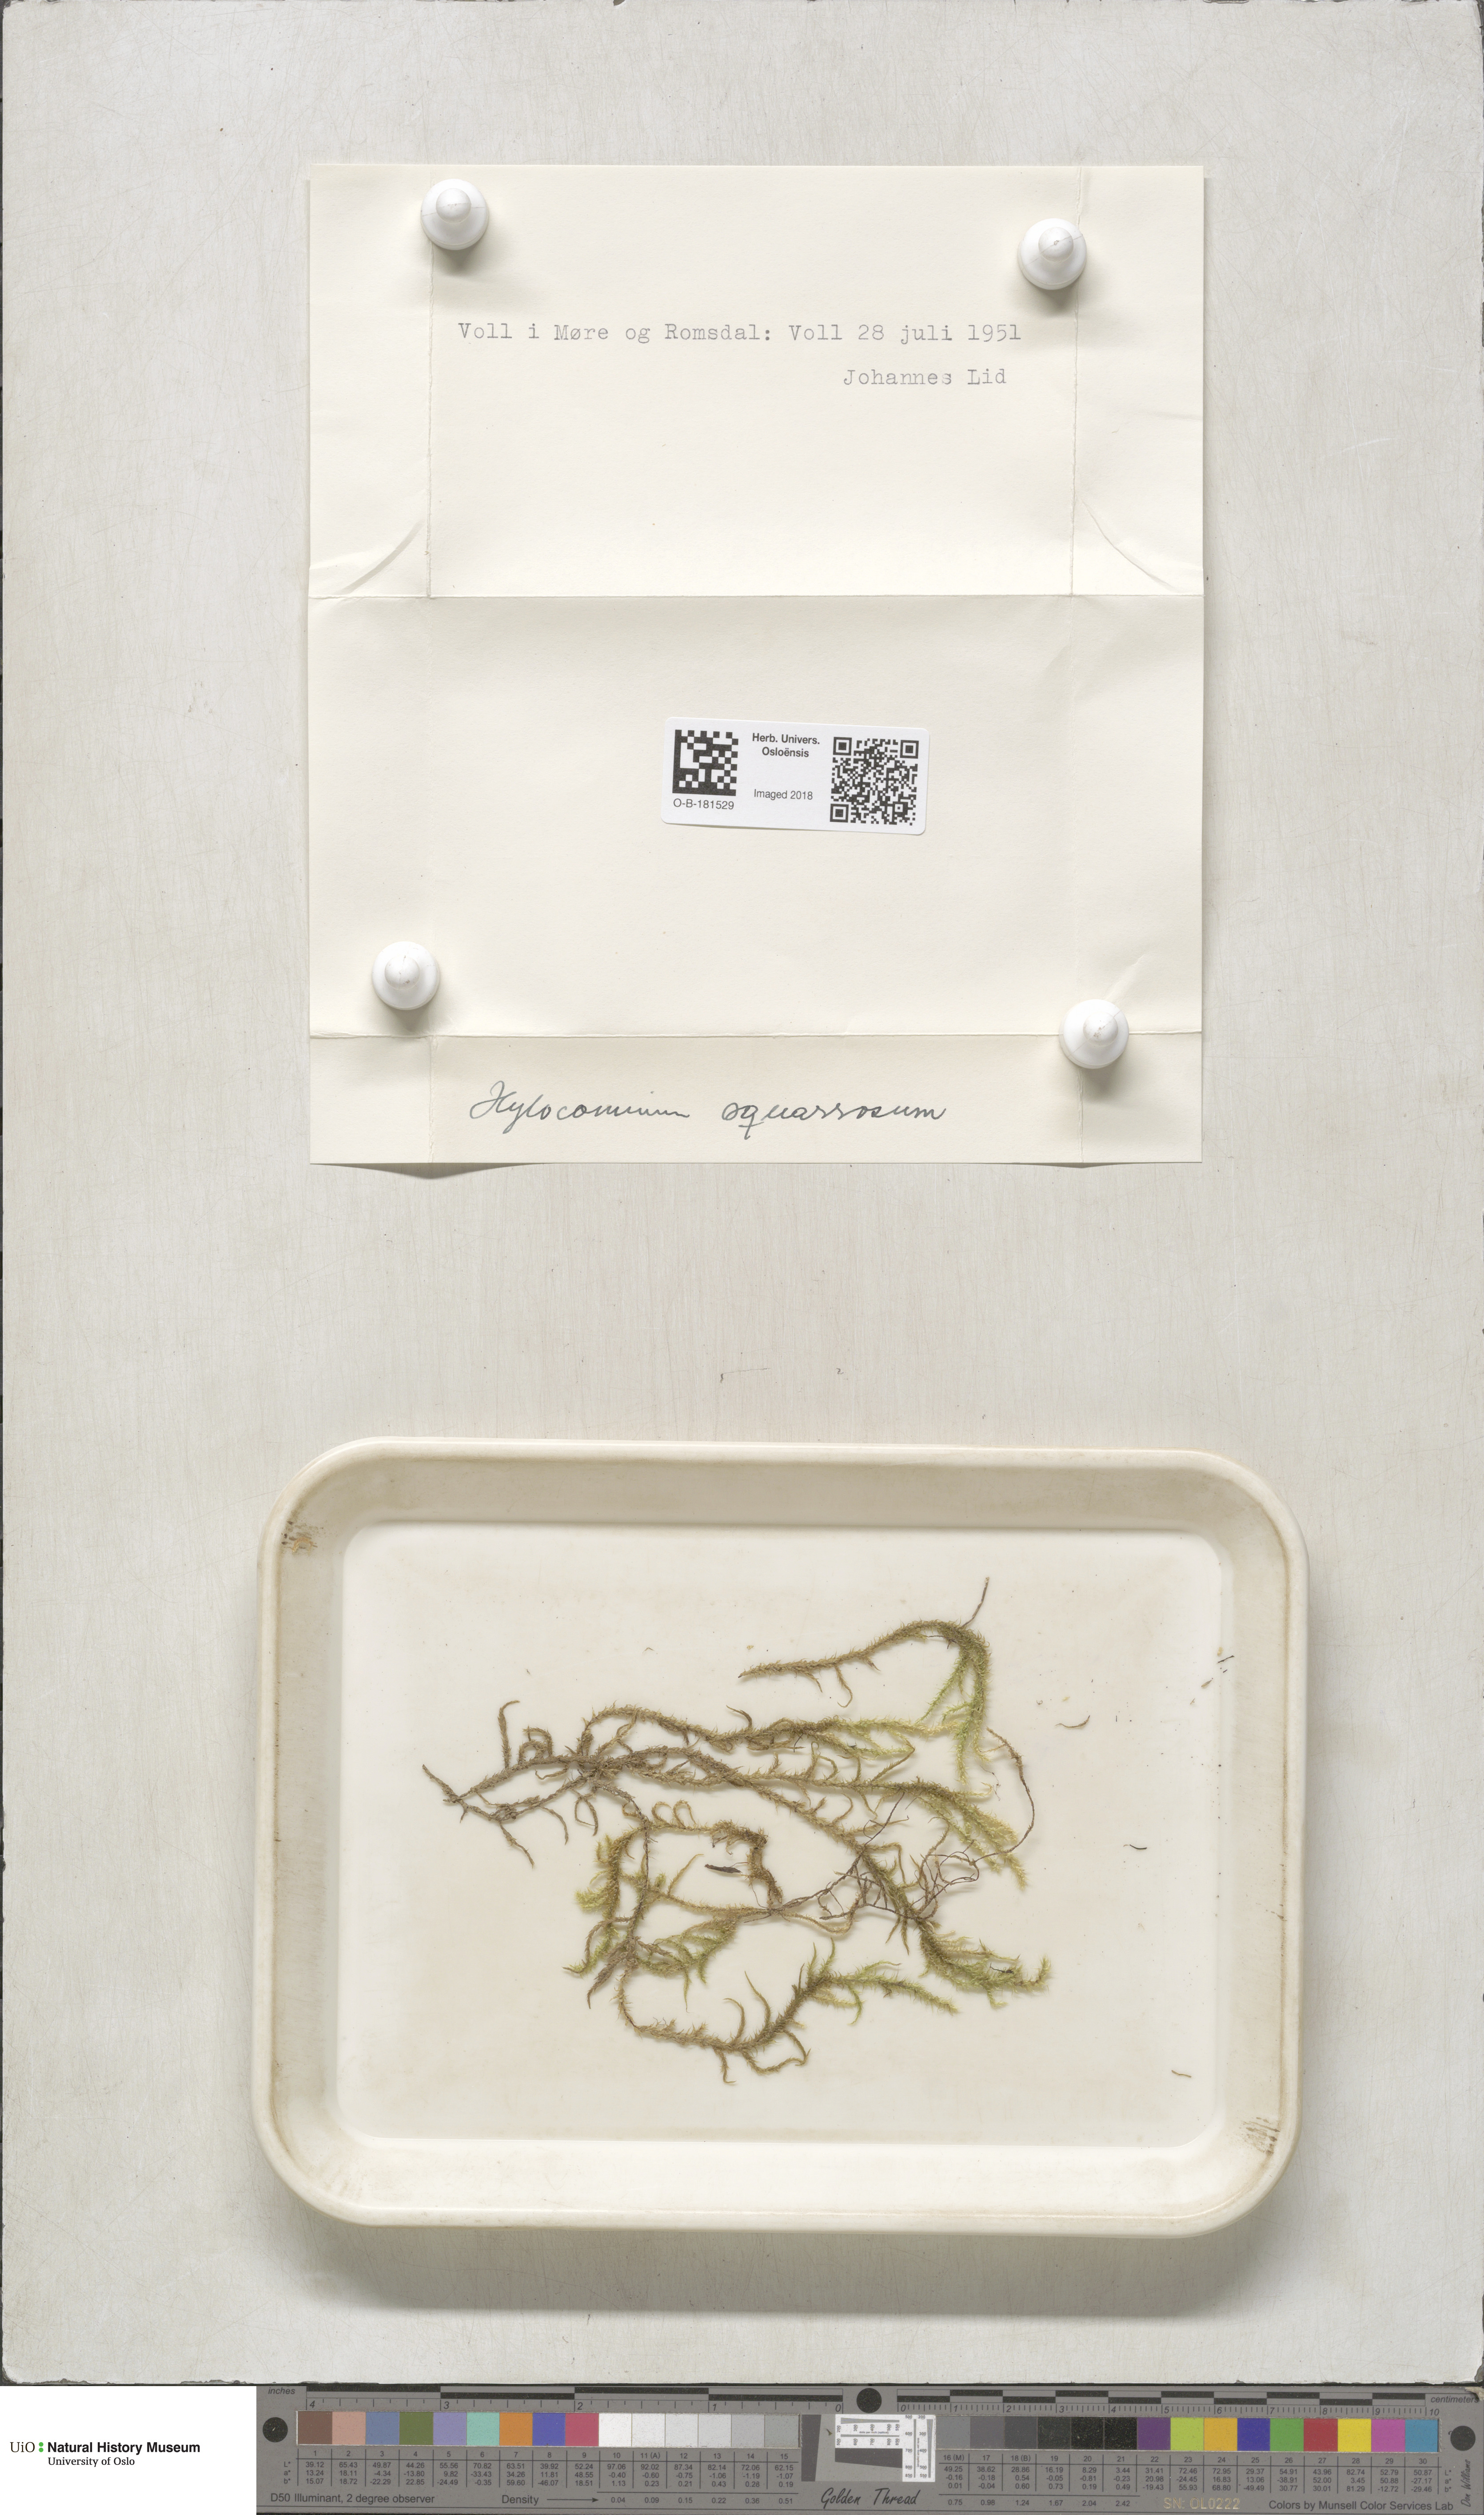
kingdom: Plantae
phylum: Bryophyta
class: Bryopsida
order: Hypnales
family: Hylocomiaceae
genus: Rhytidiadelphus
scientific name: Rhytidiadelphus squarrosus
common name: Springy turf-moss
